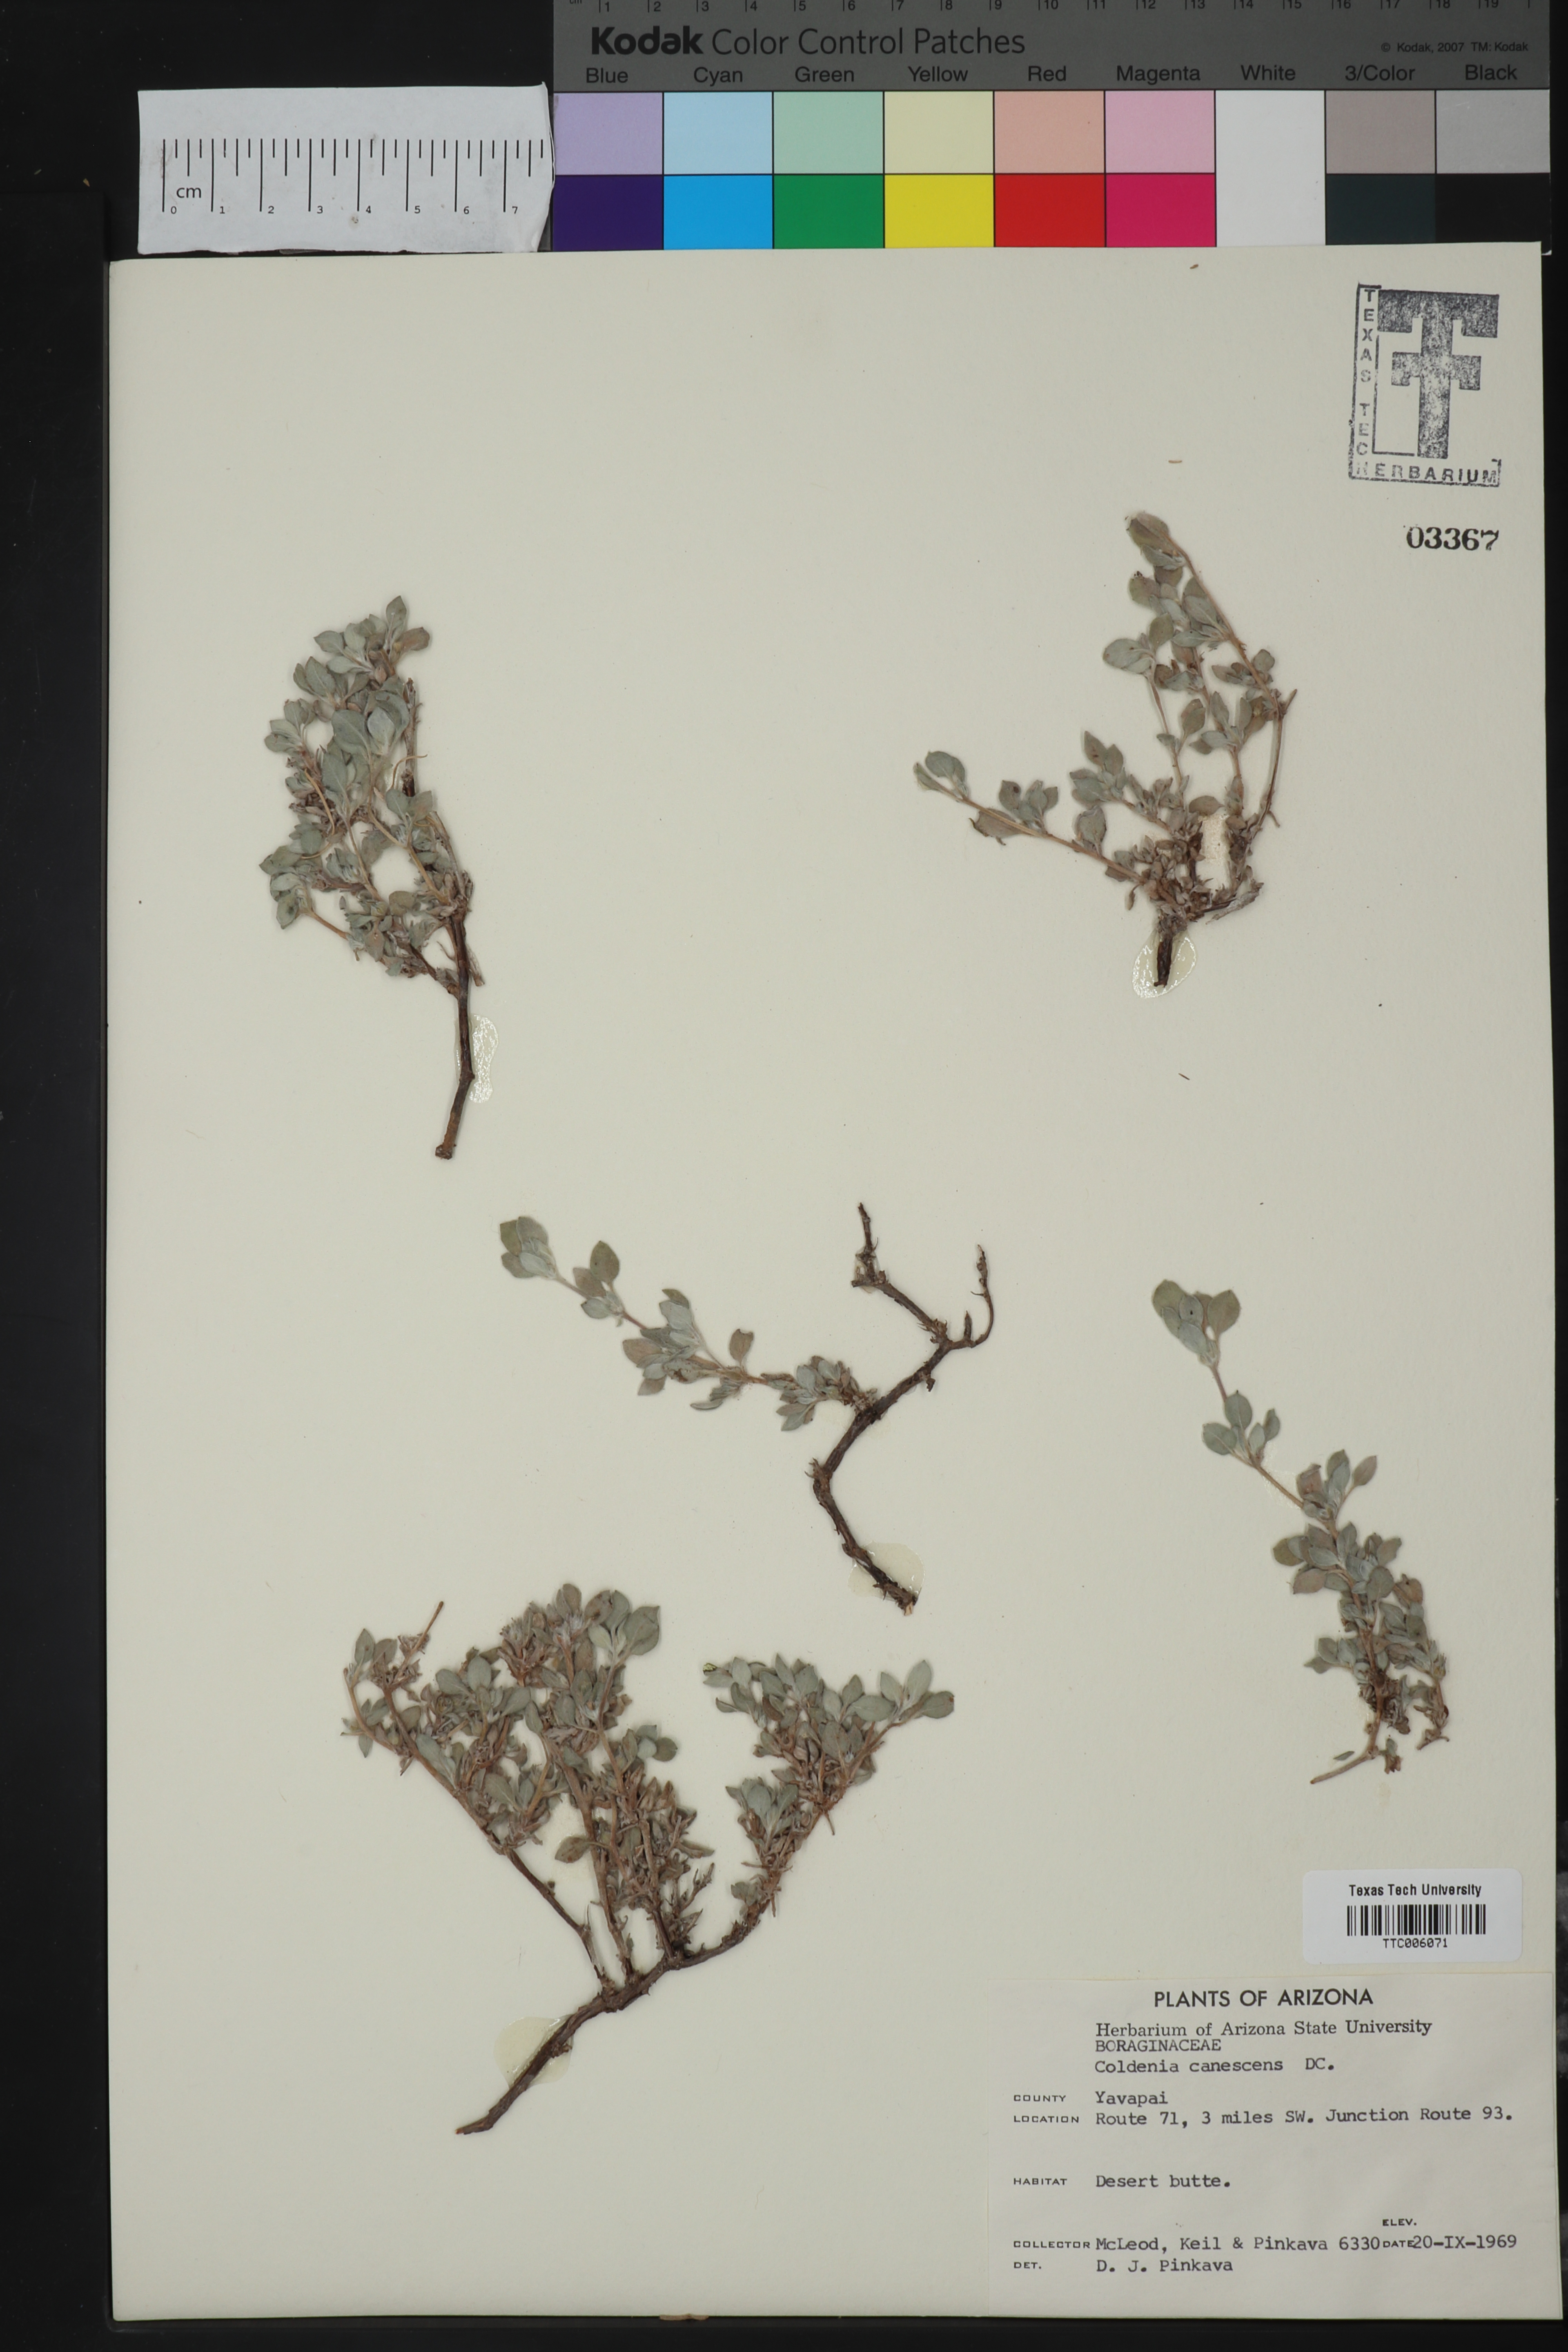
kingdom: Plantae
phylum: Tracheophyta
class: Magnoliopsida
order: Boraginales
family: Ehretiaceae
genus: Tiquilia
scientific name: Tiquilia canescens
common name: Hairy tiquilia
